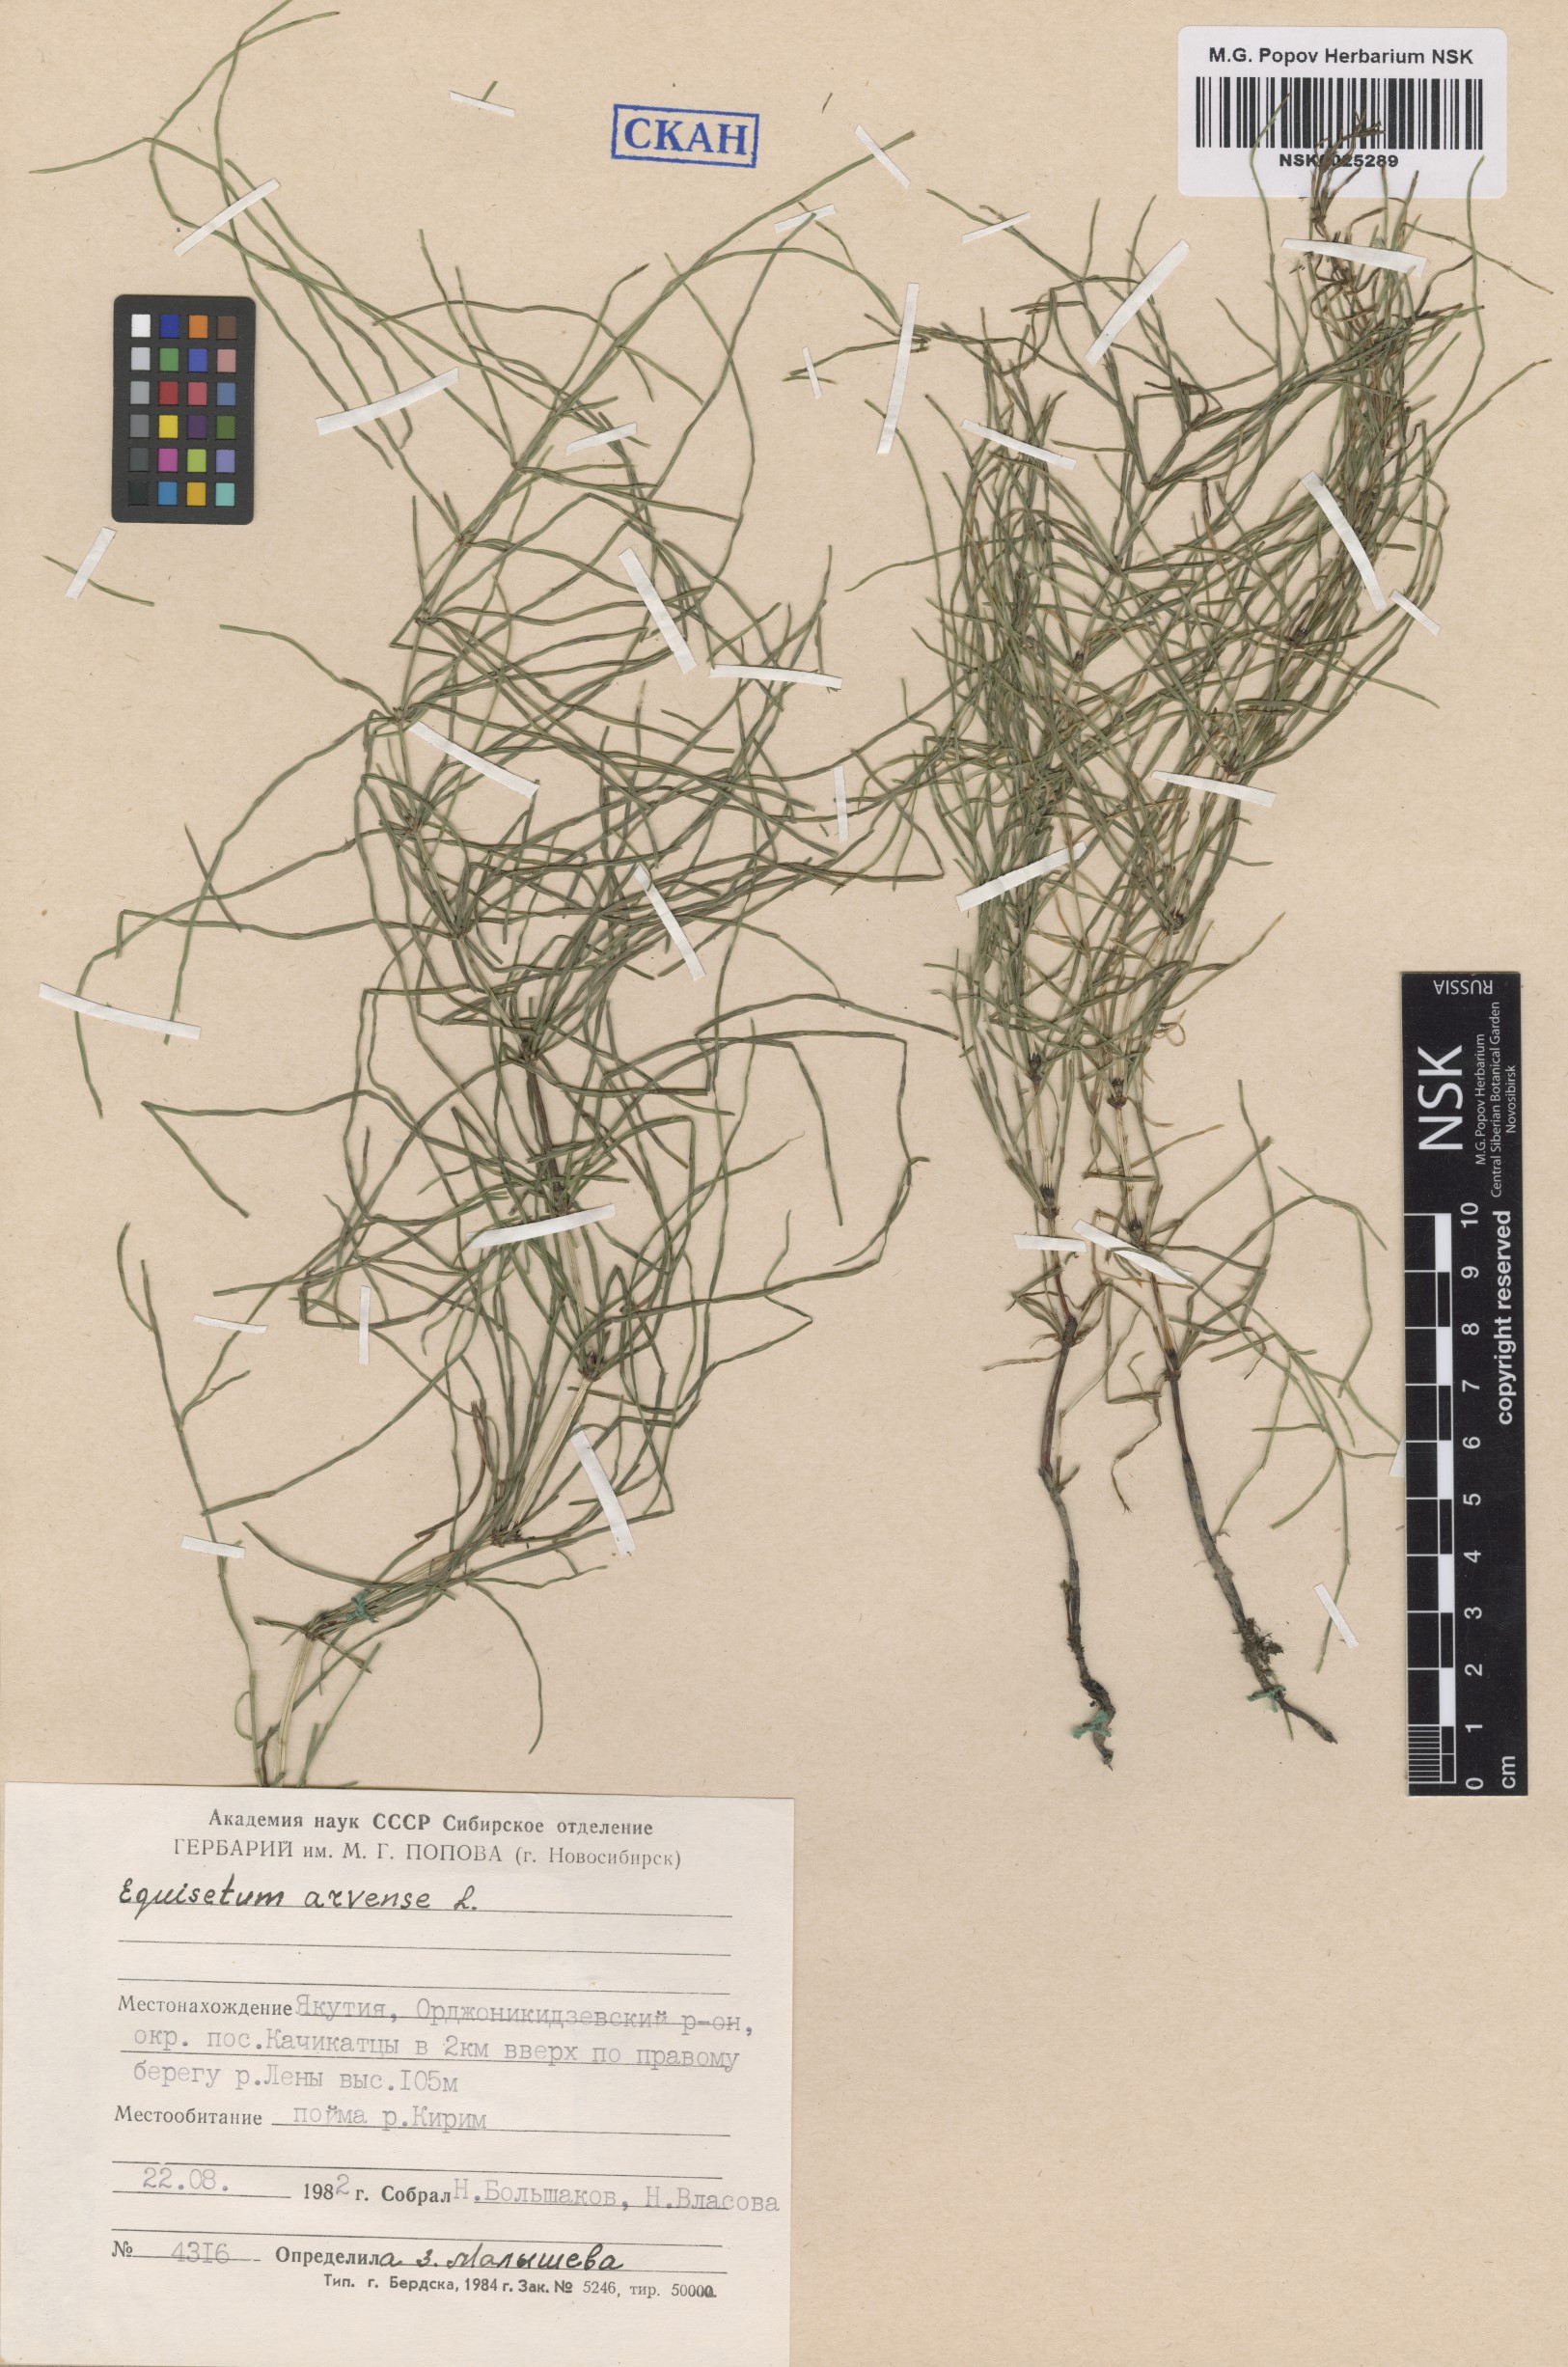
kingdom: Plantae
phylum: Tracheophyta
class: Polypodiopsida
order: Equisetales
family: Equisetaceae
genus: Equisetum
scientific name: Equisetum arvense
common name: Field horsetail
